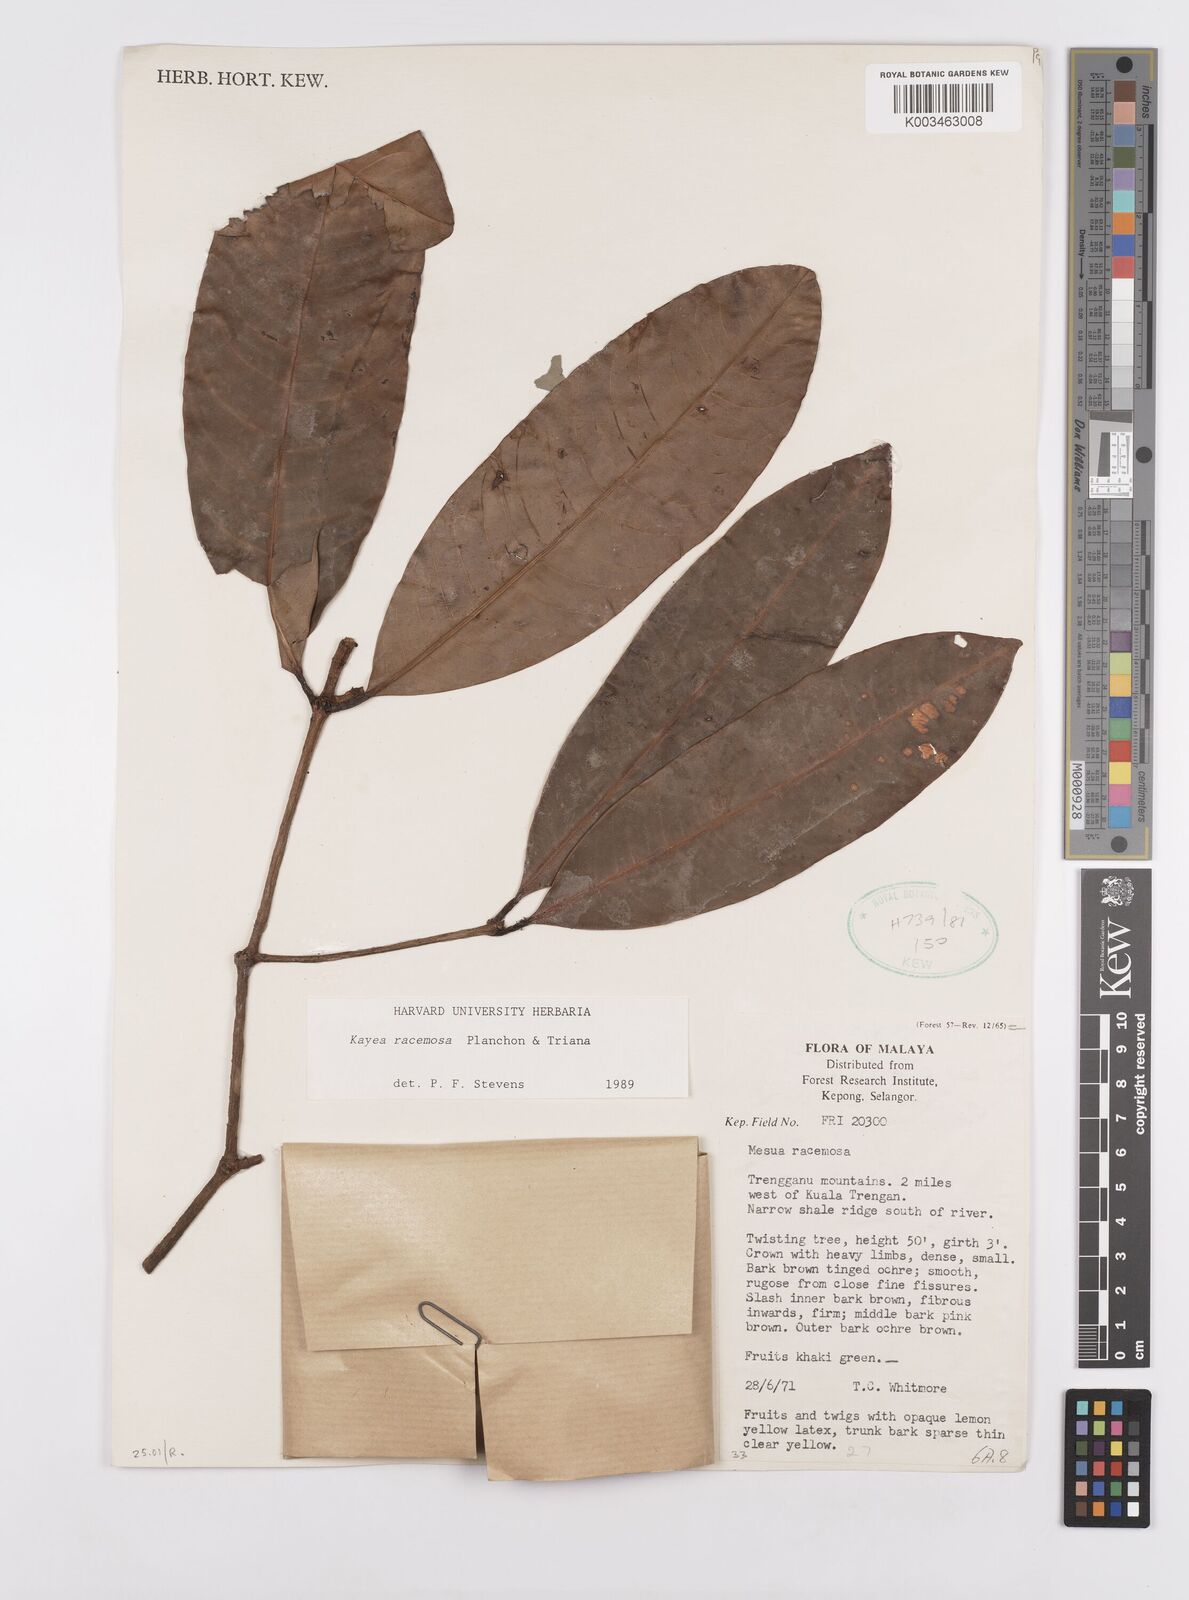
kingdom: Plantae
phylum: Tracheophyta
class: Magnoliopsida
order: Malpighiales
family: Calophyllaceae
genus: Kayea
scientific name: Kayea racemosa
